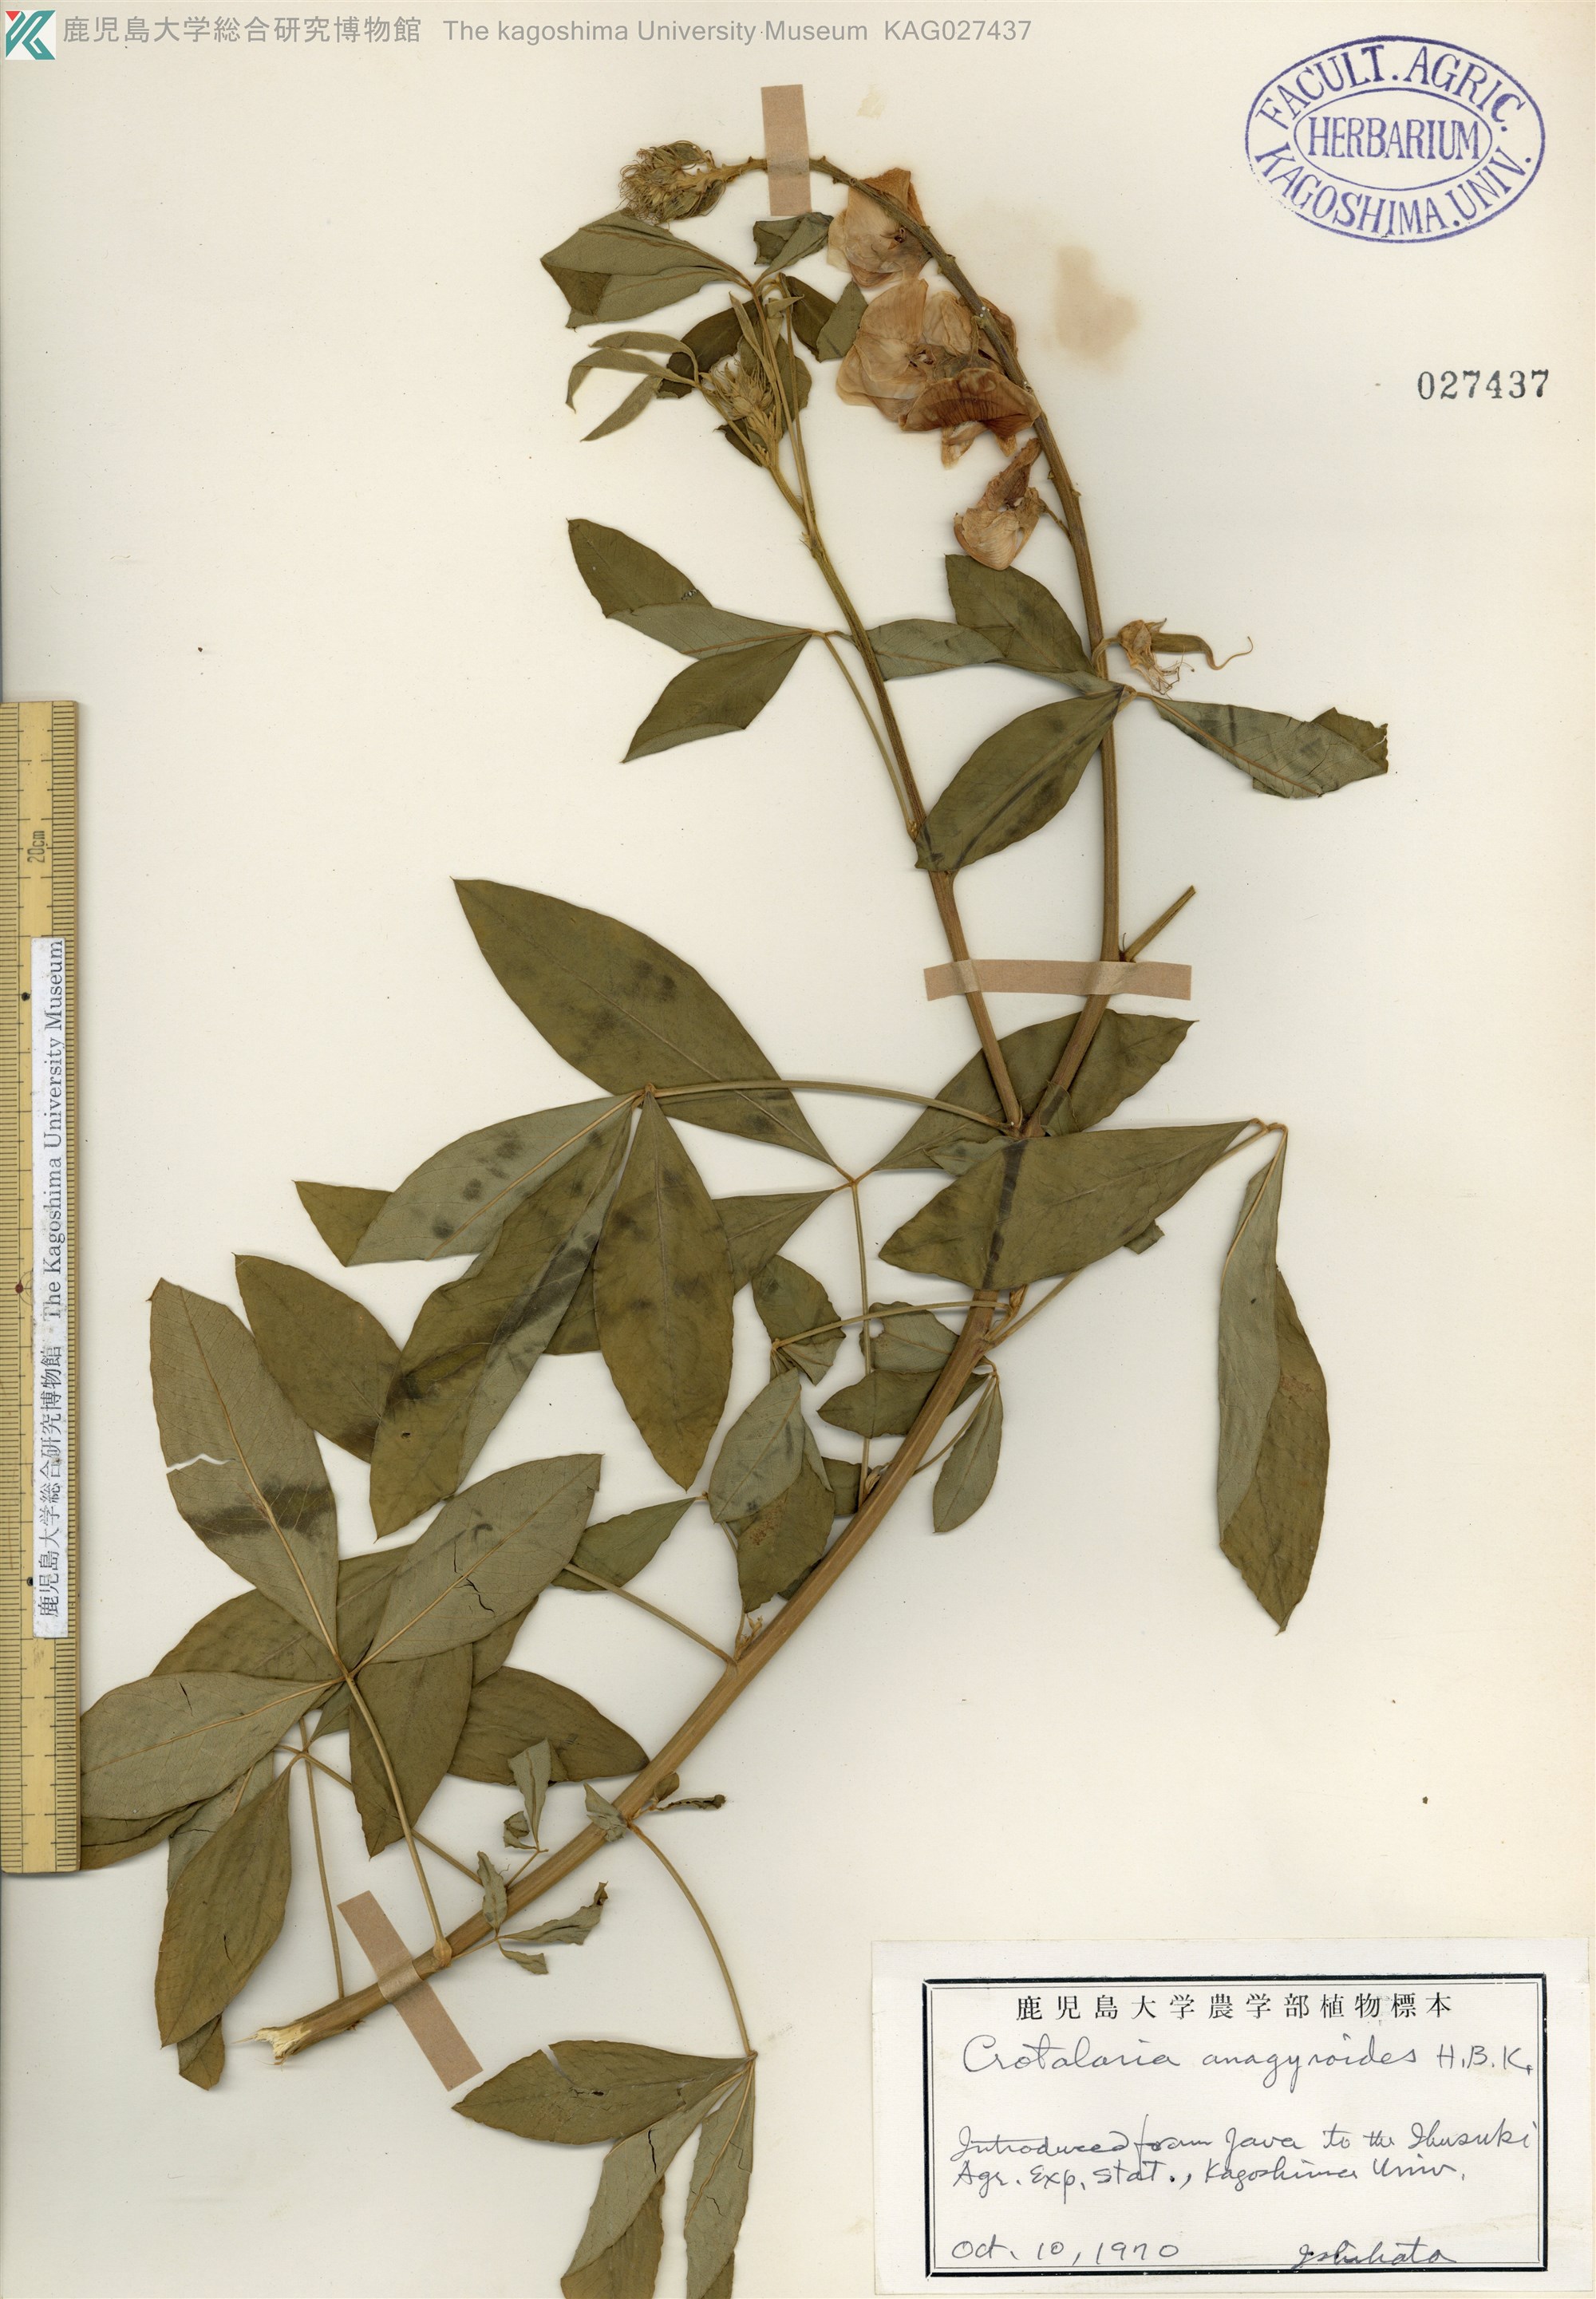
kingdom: Plantae
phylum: Tracheophyta
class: Magnoliopsida
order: Fabales
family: Fabaceae
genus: Crotalaria
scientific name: Crotalaria micans
